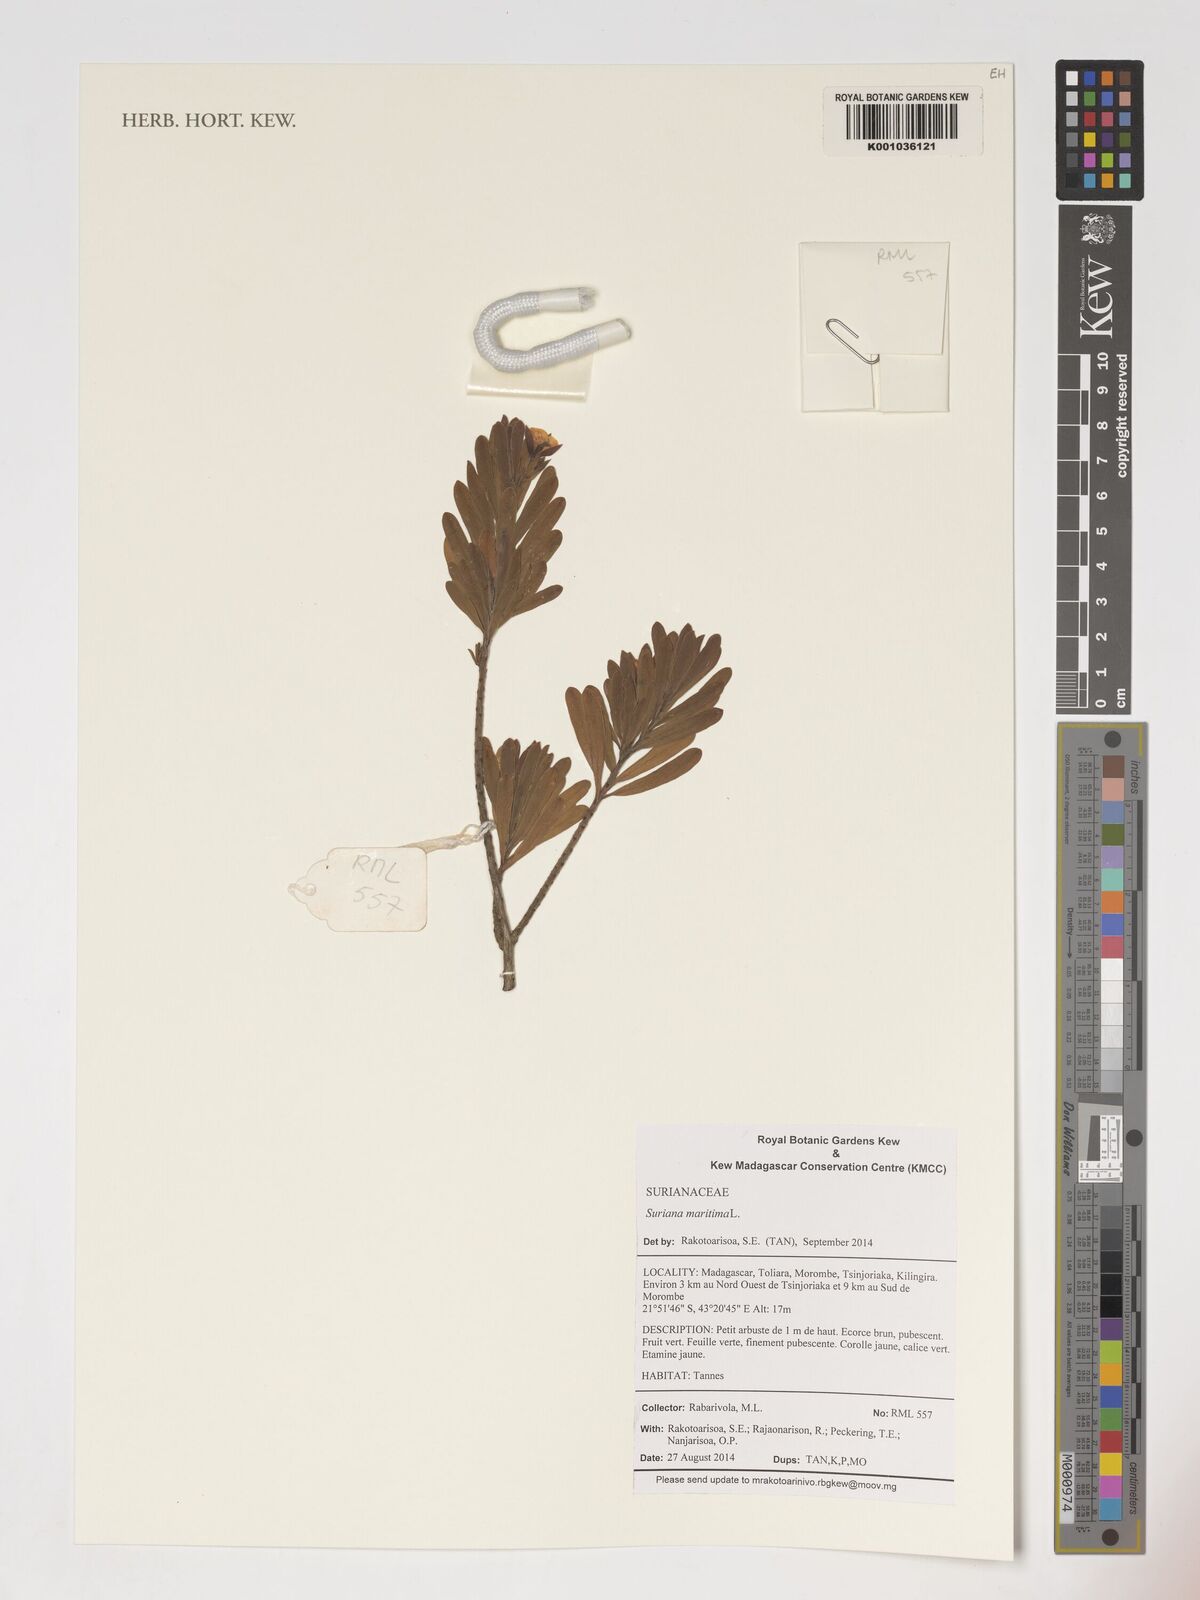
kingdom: Plantae
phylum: Tracheophyta
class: Magnoliopsida
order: Fabales
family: Surianaceae
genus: Suriana
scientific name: Suriana maritima
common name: Bay-cedar
